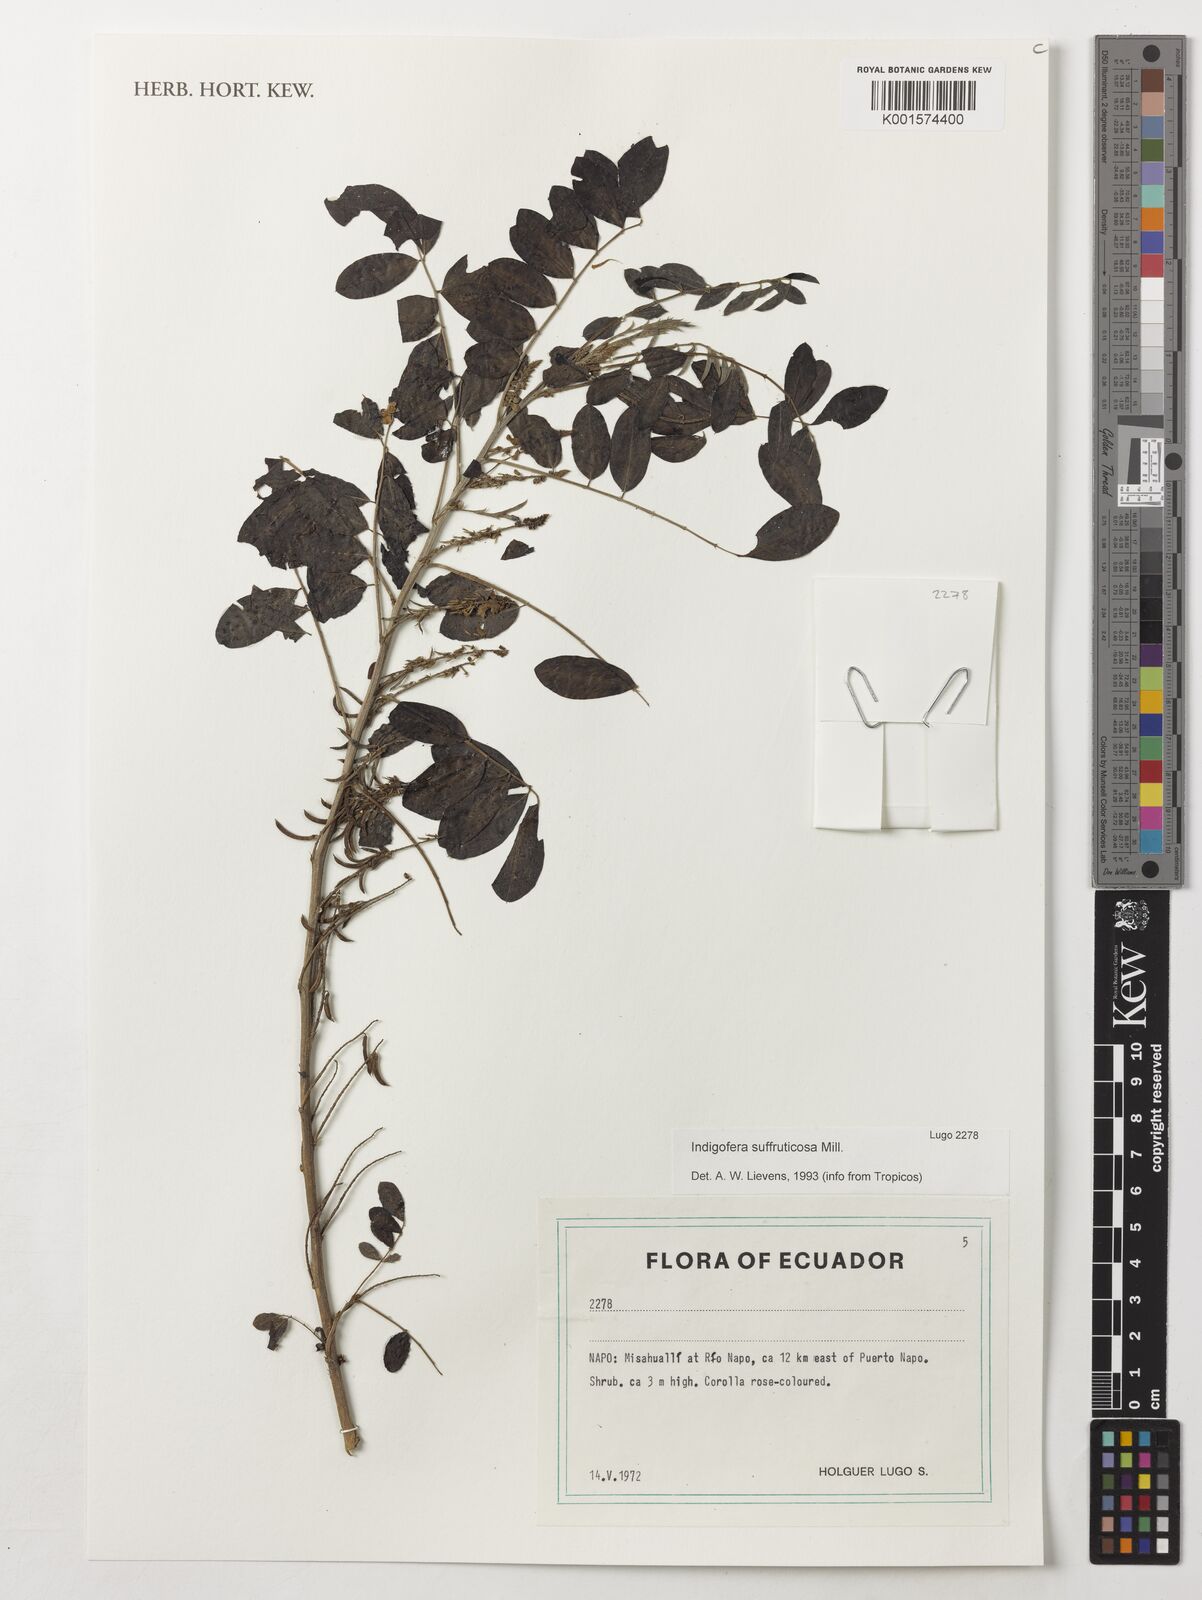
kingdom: Plantae
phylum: Tracheophyta
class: Magnoliopsida
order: Fabales
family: Fabaceae
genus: Indigofera
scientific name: Indigofera suffruticosa
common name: Anil de pasto
